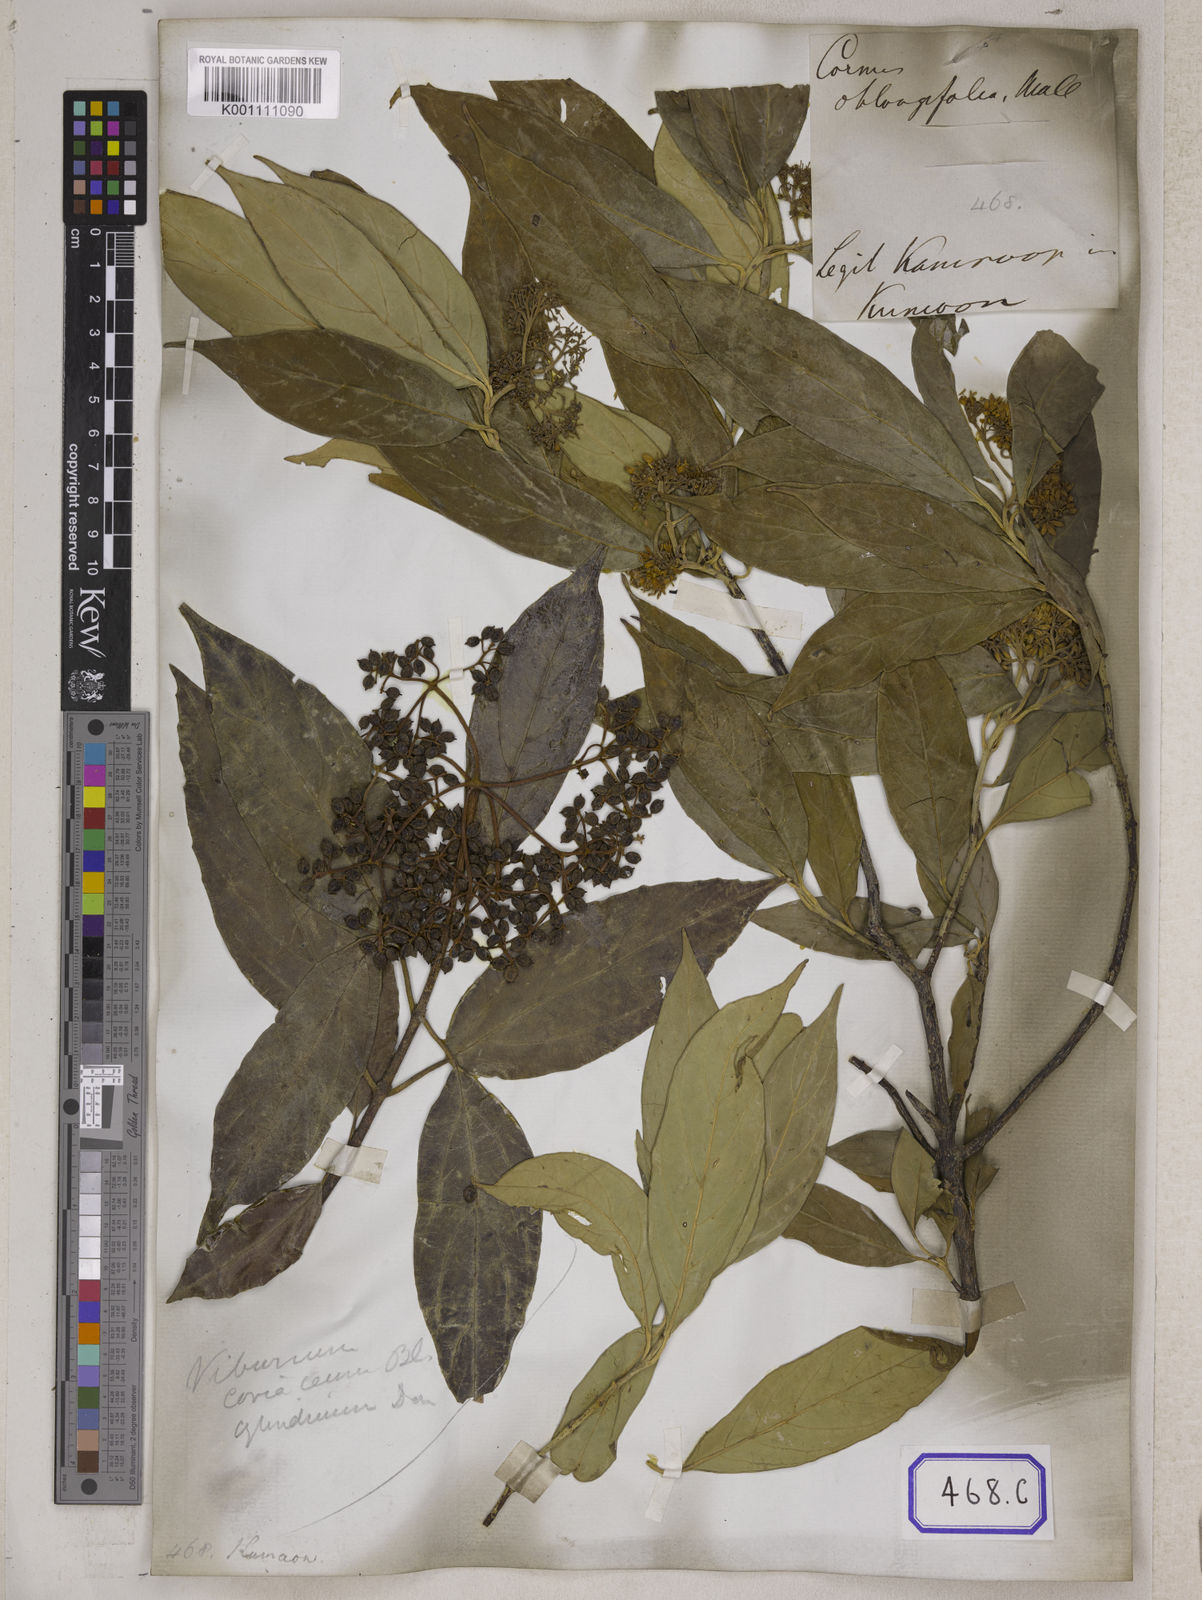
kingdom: Plantae
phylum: Tracheophyta
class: Magnoliopsida
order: Cornales
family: Cornaceae
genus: Cornus
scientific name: Cornus oblonga
